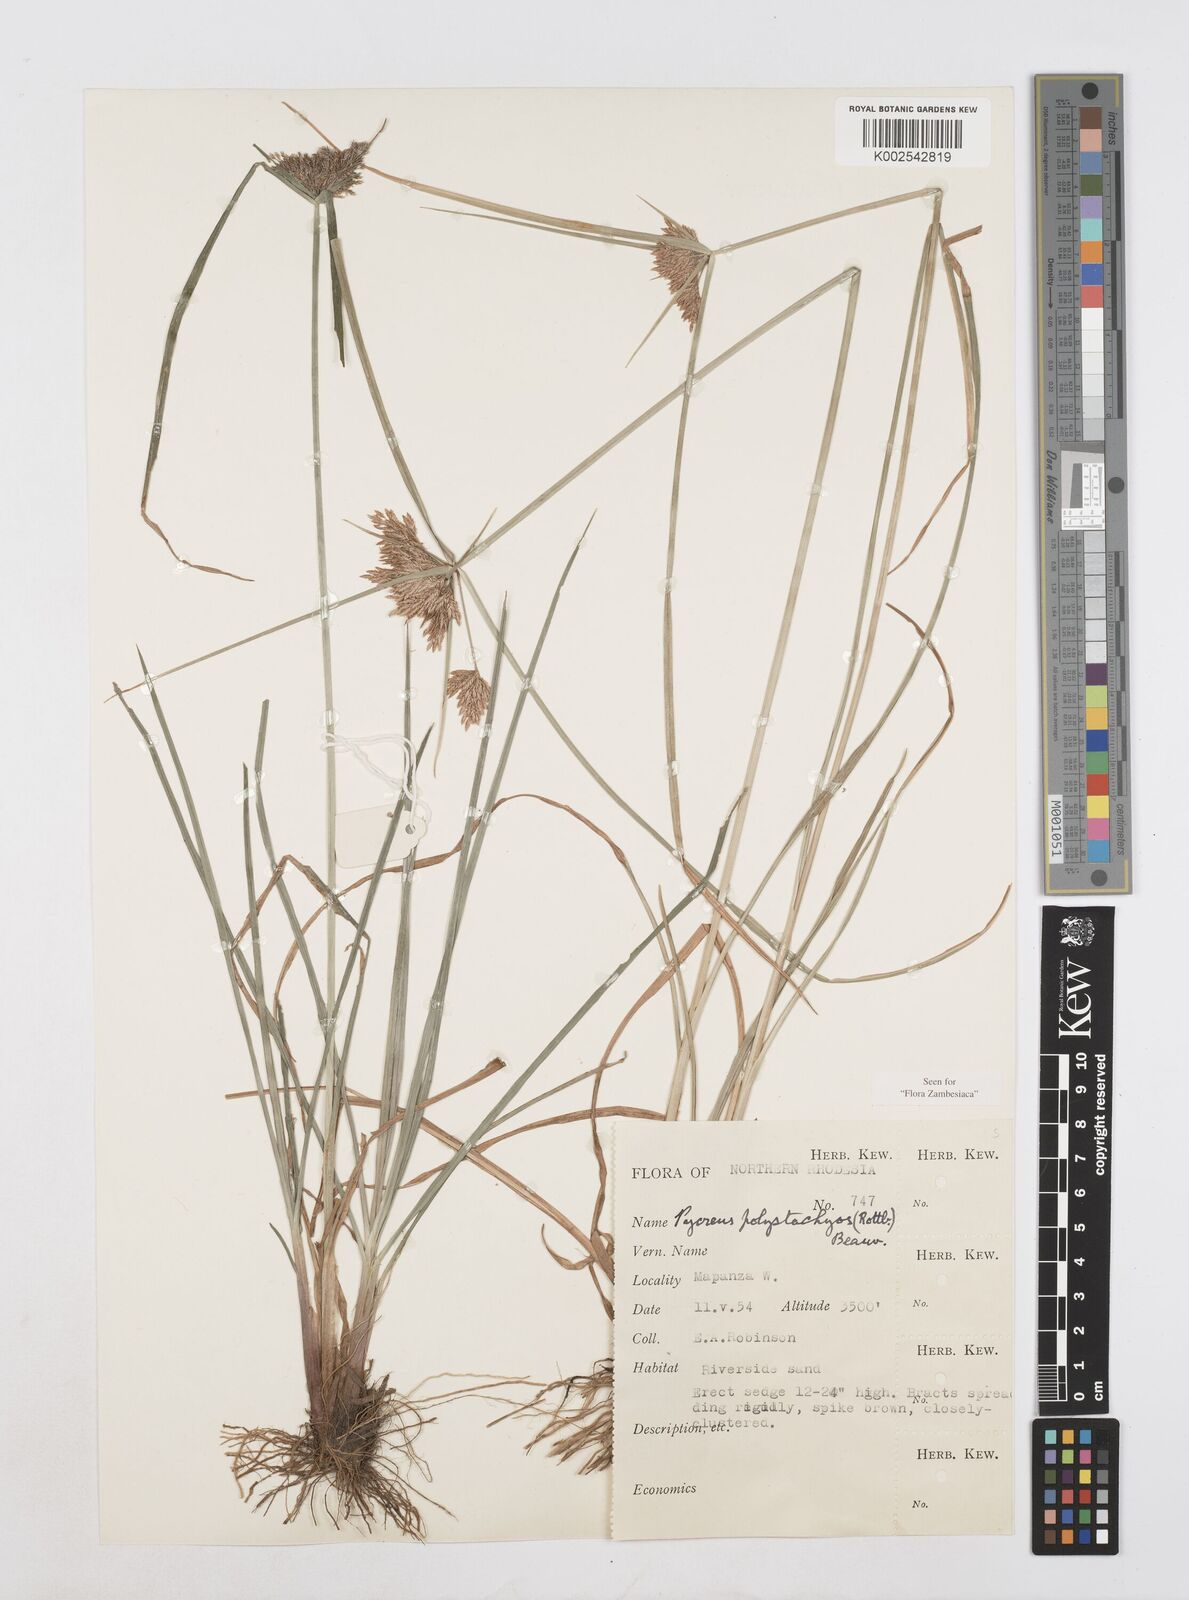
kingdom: Plantae
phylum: Tracheophyta
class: Liliopsida
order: Poales
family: Cyperaceae
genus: Cyperus
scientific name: Cyperus polystachyos
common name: Bunchy flat sedge
